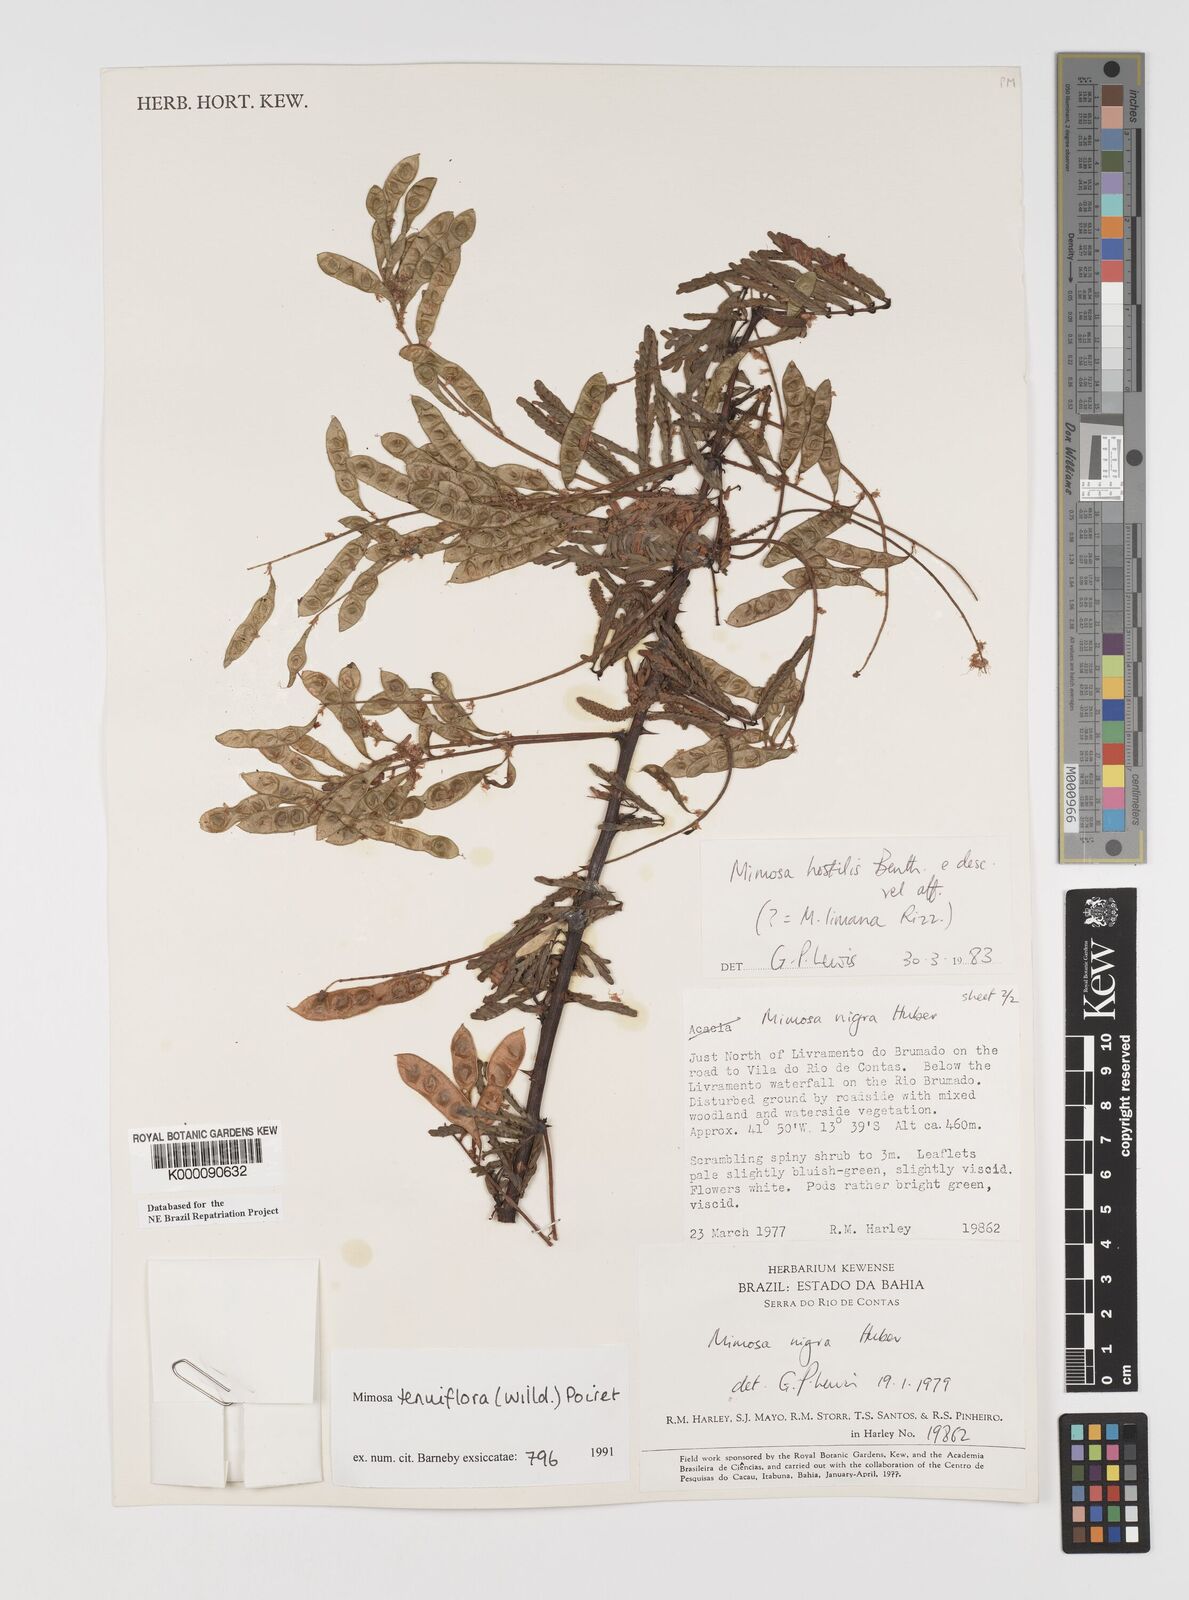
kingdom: Plantae
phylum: Tracheophyta
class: Magnoliopsida
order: Fabales
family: Fabaceae
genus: Mimosa
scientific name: Mimosa tenuiflora
